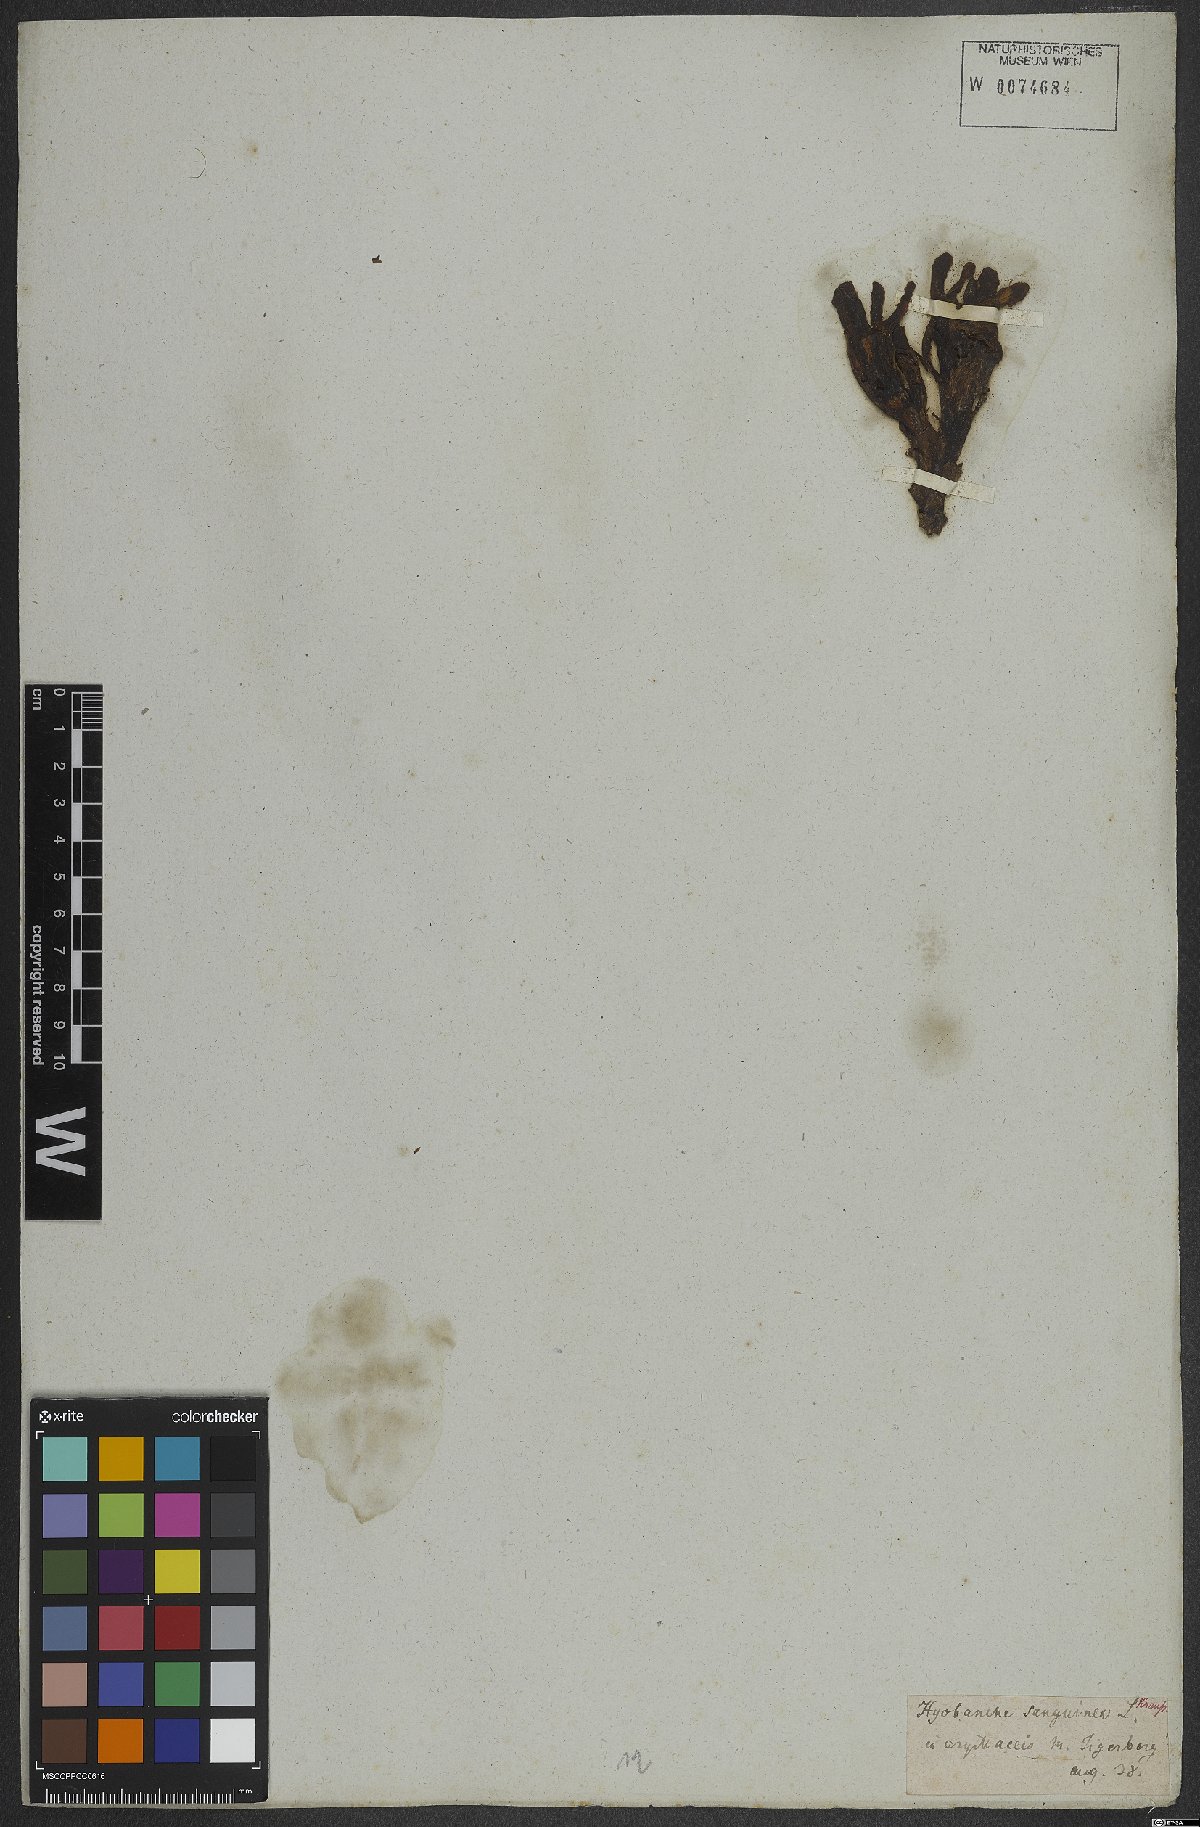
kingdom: Plantae
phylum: Tracheophyta
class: Magnoliopsida
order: Lamiales
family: Orobanchaceae
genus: Hyobanche
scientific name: Hyobanche sanguinea
